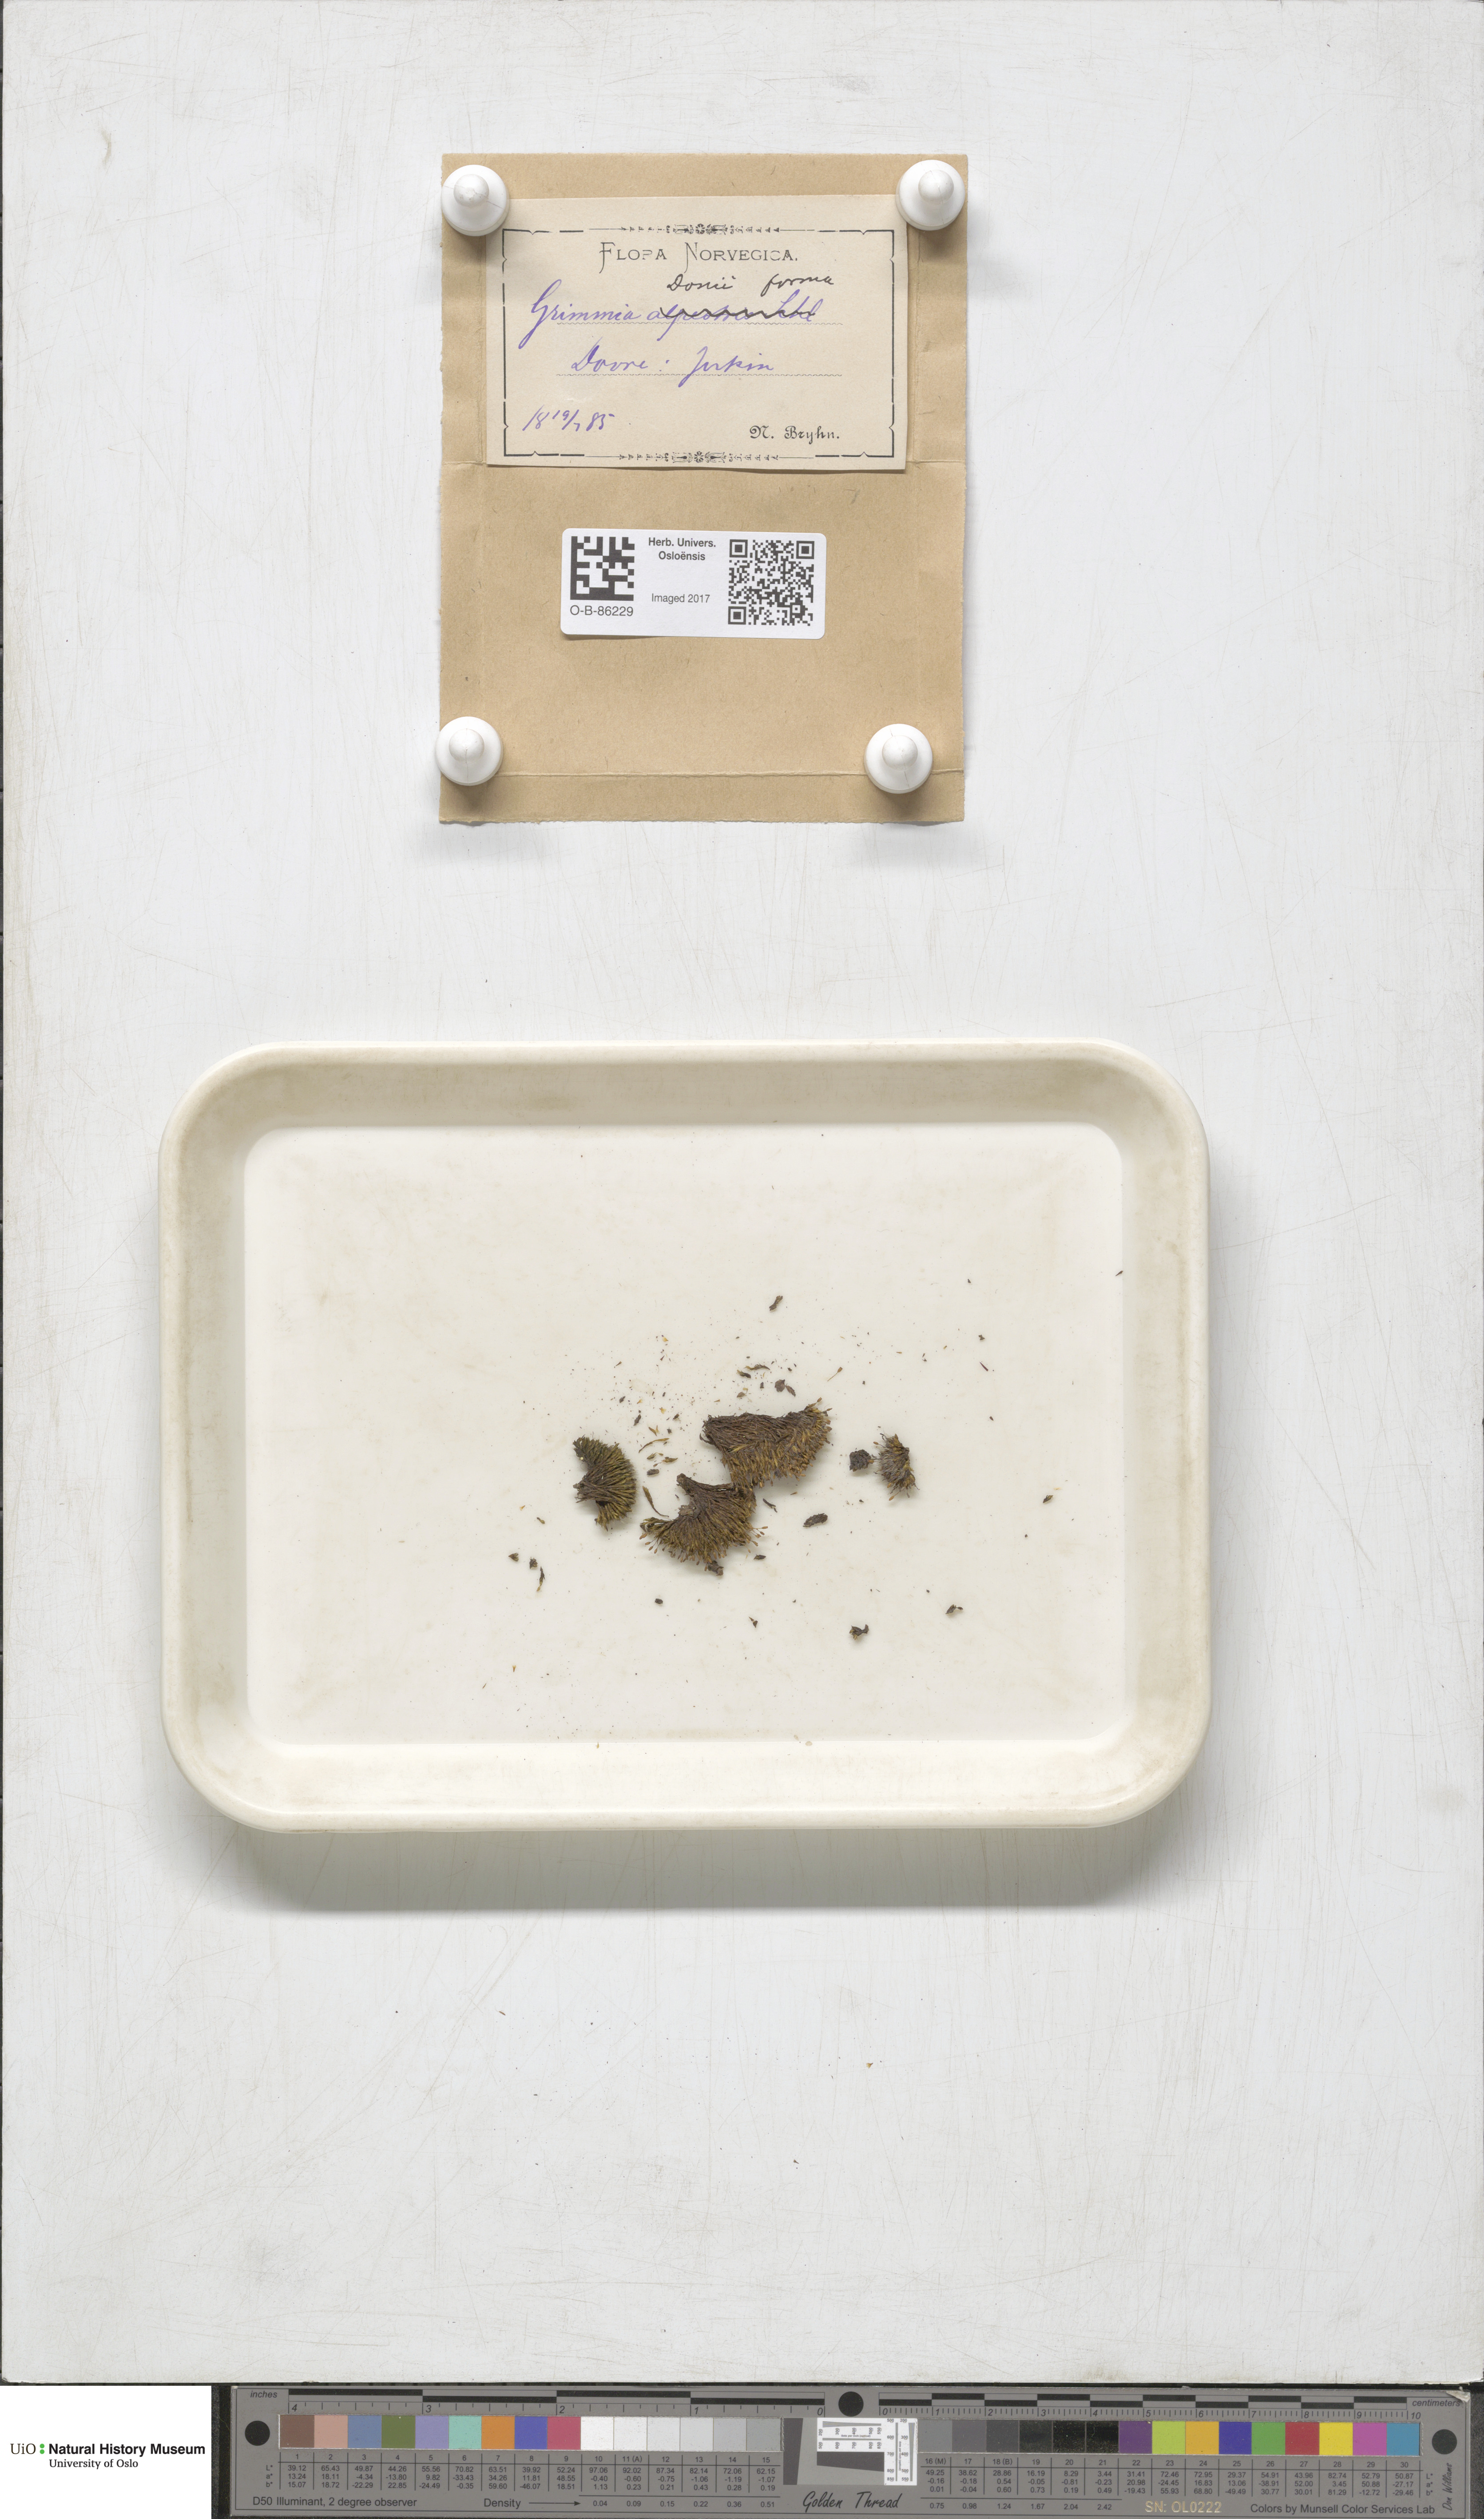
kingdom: Plantae
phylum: Bryophyta
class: Bryopsida
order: Grimmiales
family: Grimmiaceae
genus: Grimmia
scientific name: Grimmia donniana
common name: Donn's grimmia
